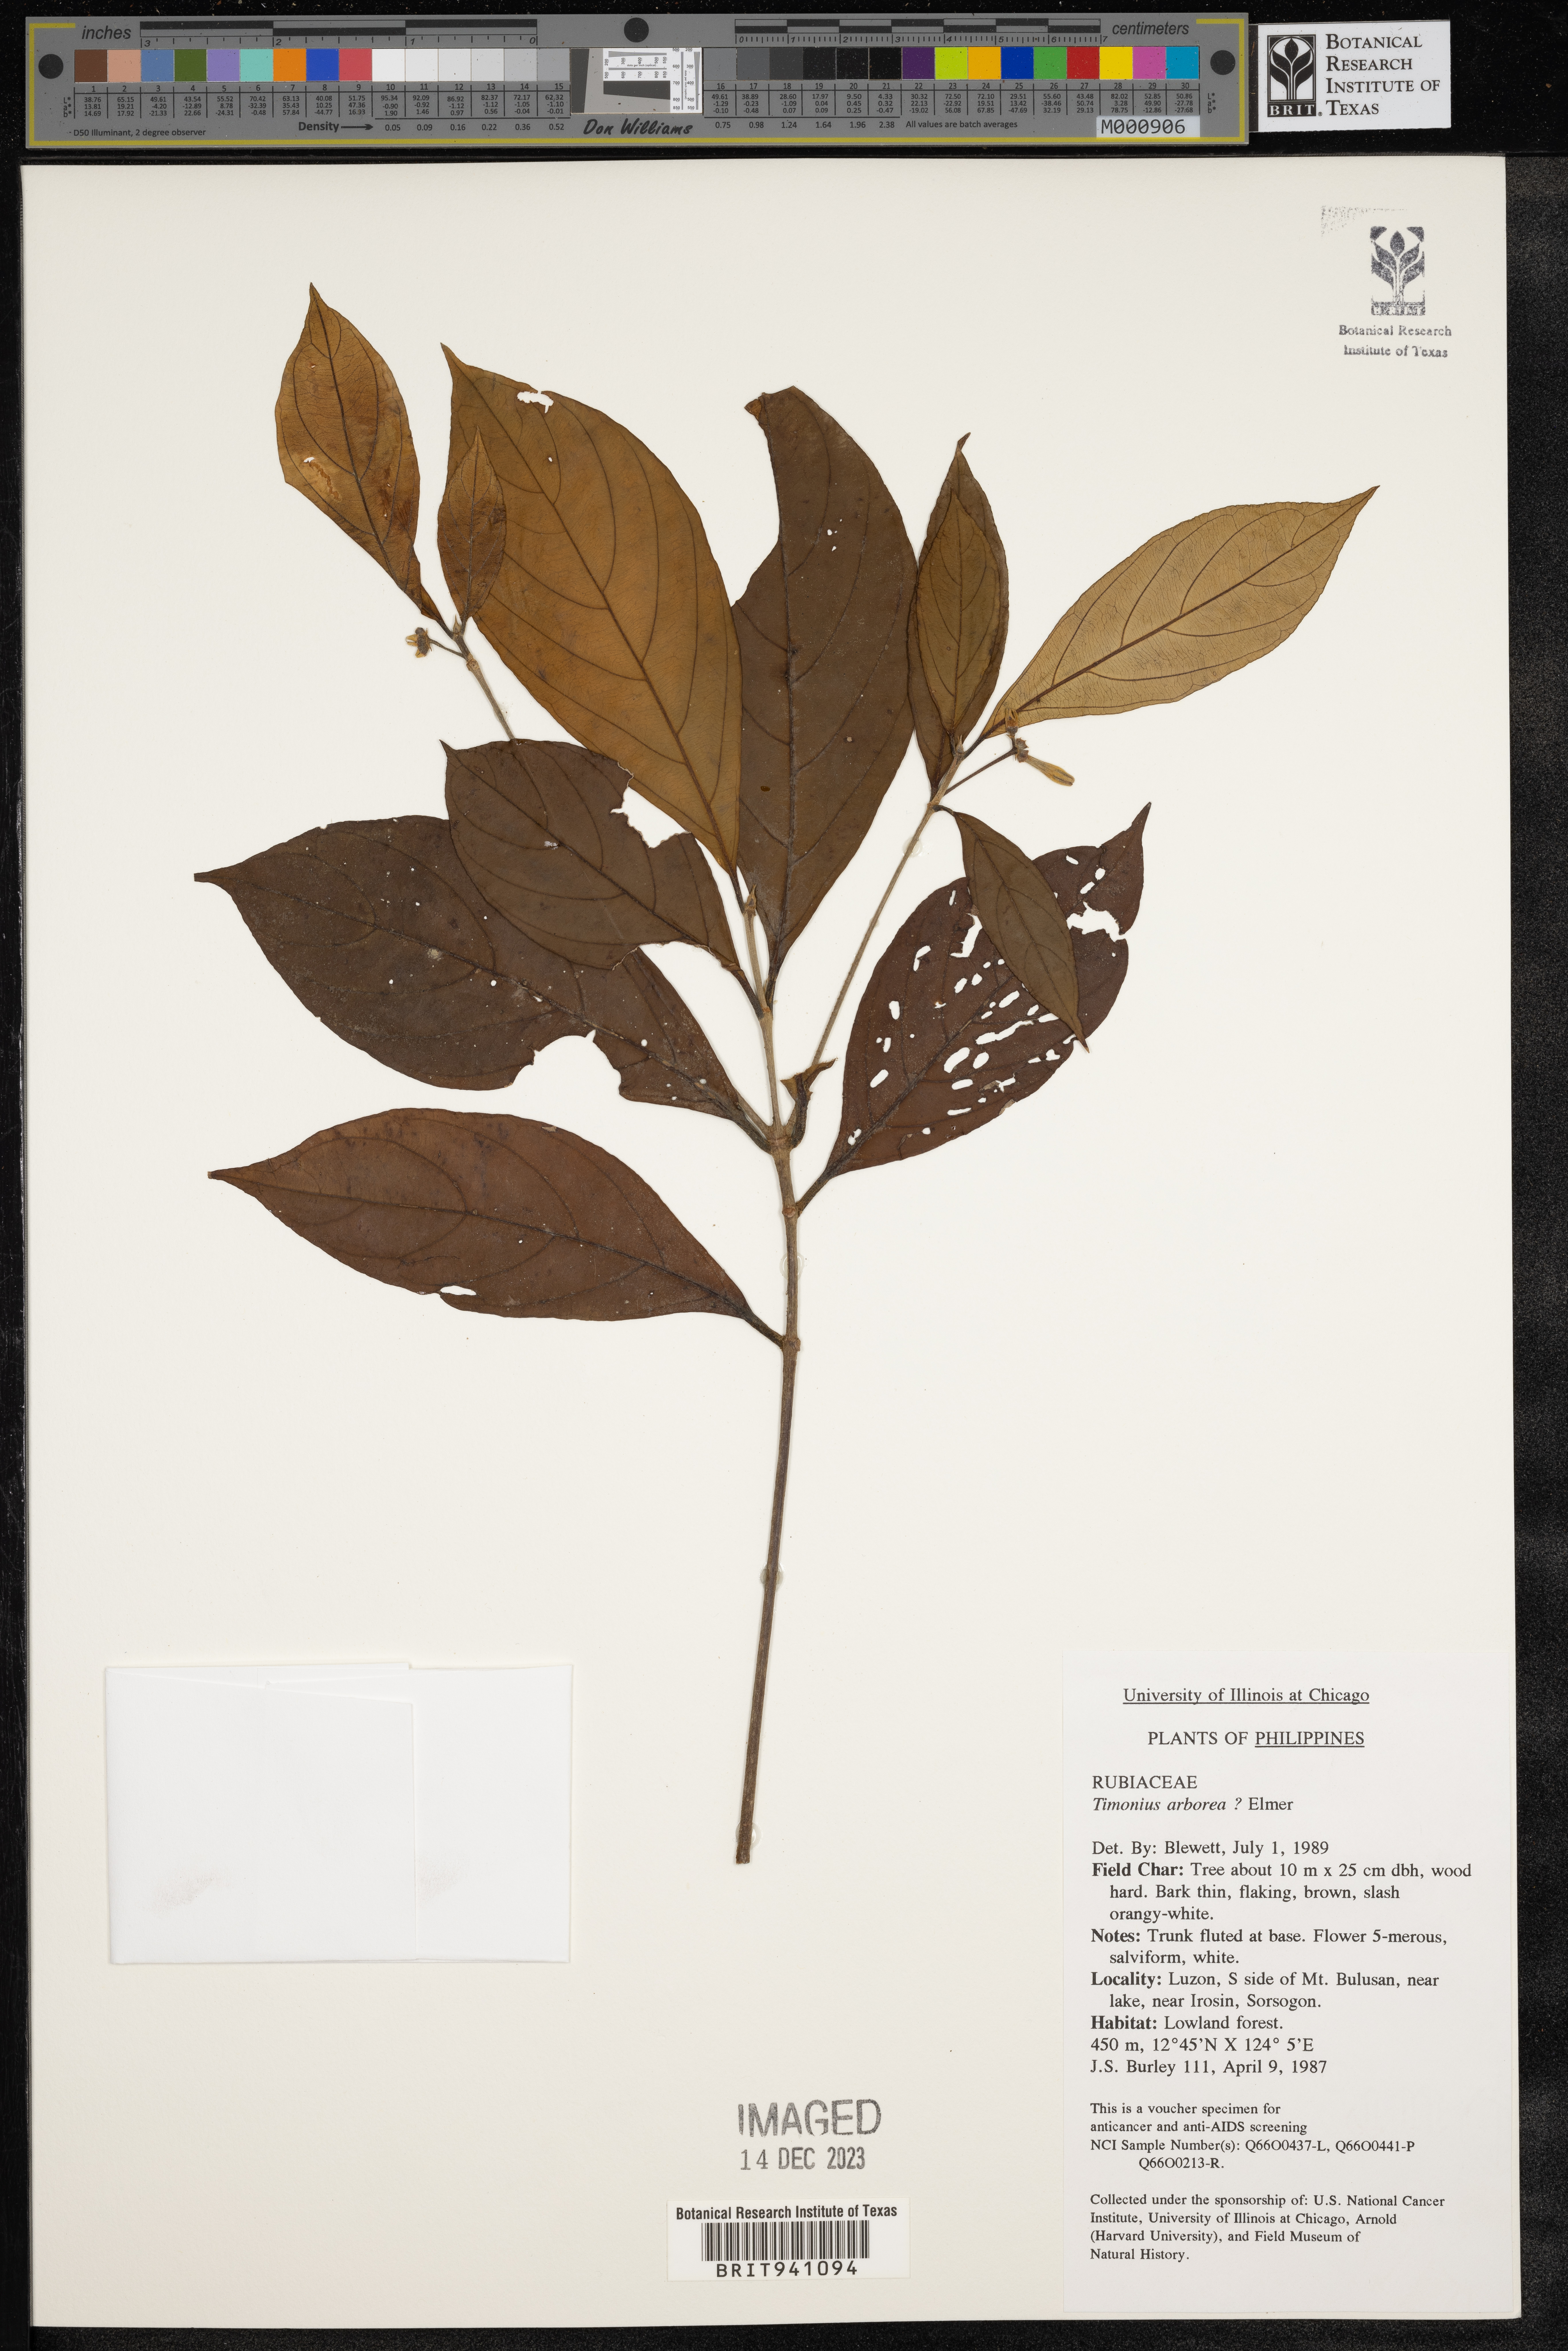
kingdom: Plantae
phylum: Tracheophyta
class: Magnoliopsida
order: Gentianales
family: Rubiaceae
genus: Timonius
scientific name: Timonius
